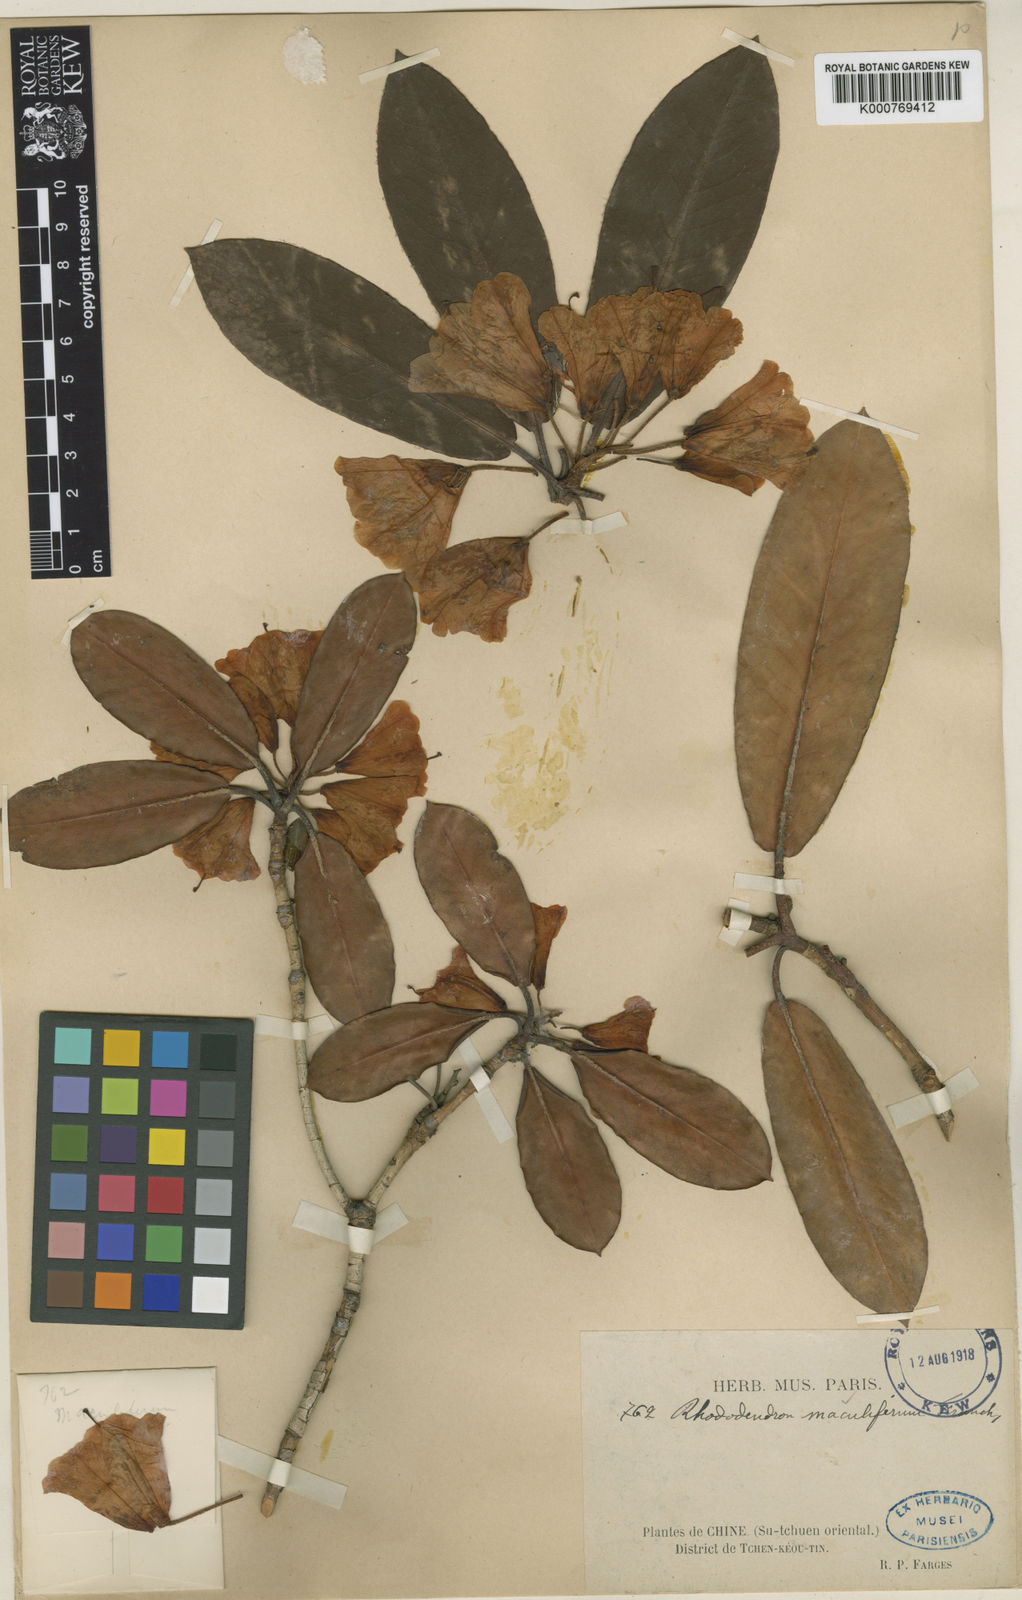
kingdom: Plantae
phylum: Tracheophyta
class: Magnoliopsida
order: Ericales
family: Ericaceae
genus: Rhododendron
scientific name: Rhododendron maculiferum
